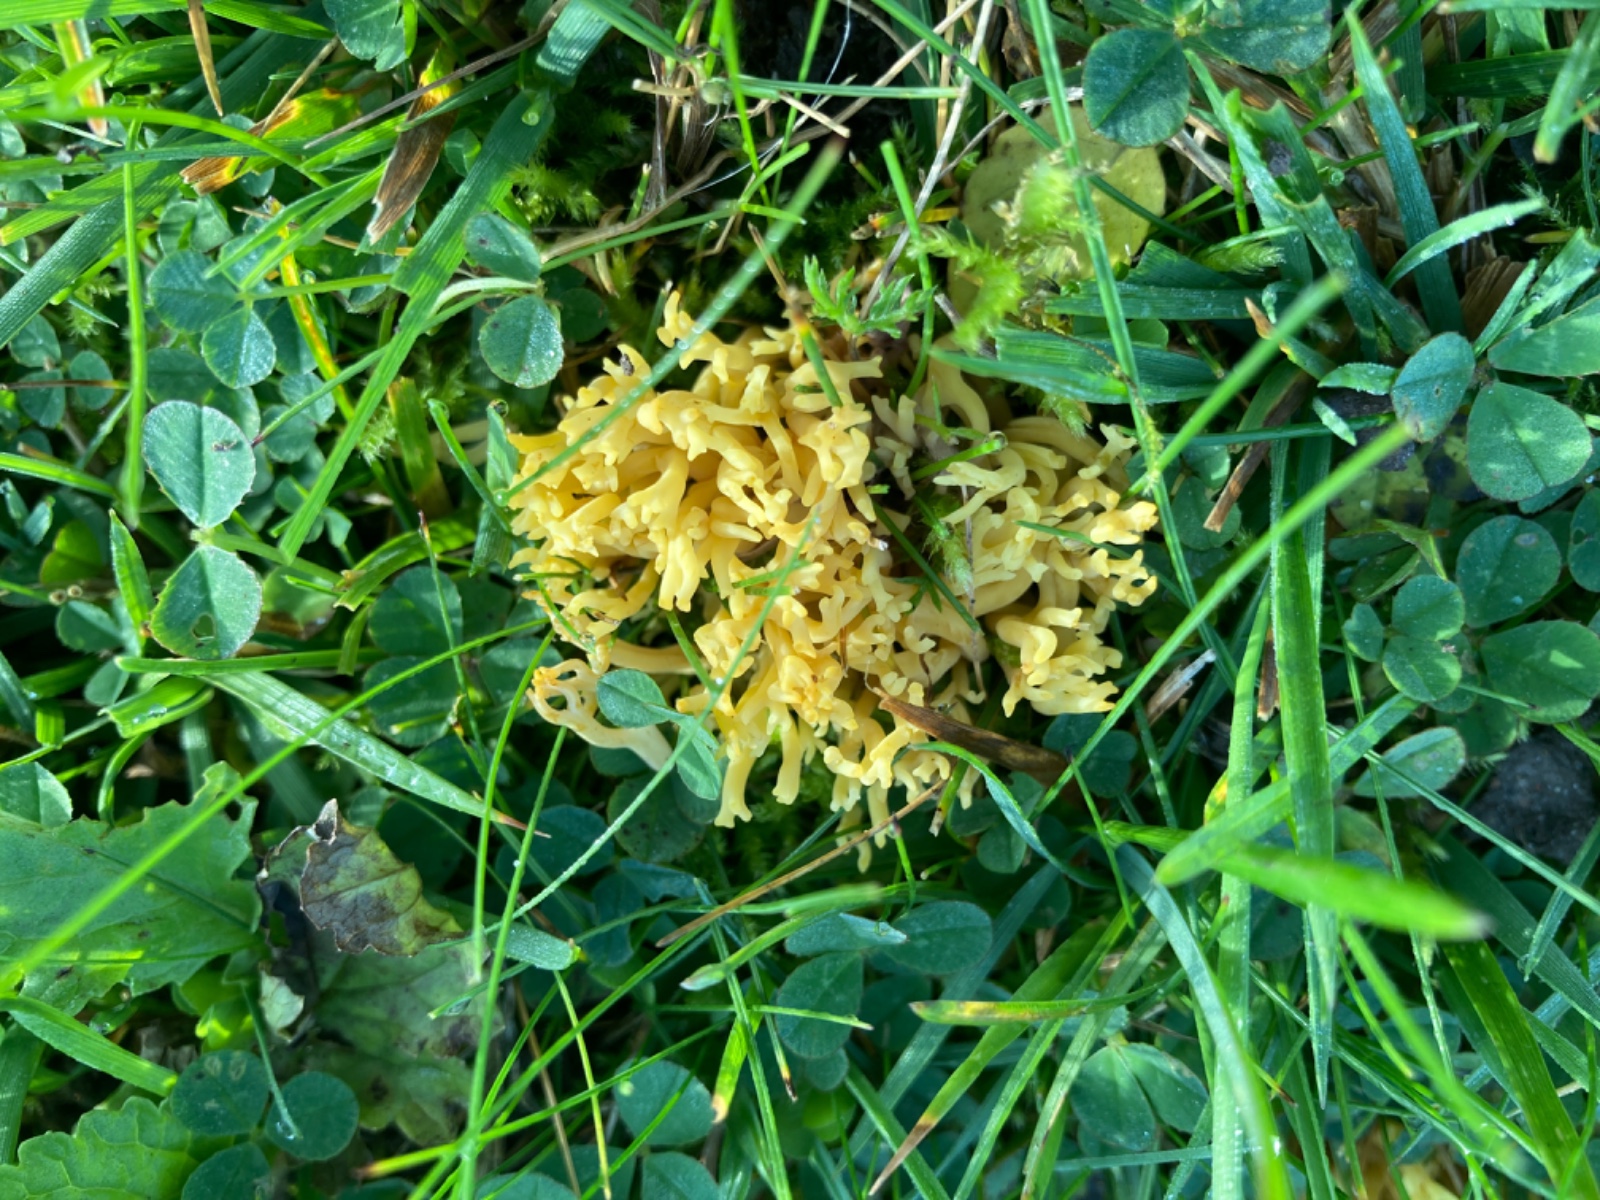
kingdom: Fungi
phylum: Basidiomycota
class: Agaricomycetes
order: Agaricales
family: Clavariaceae
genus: Clavulinopsis
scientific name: Clavulinopsis corniculata
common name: eng-køllesvamp
